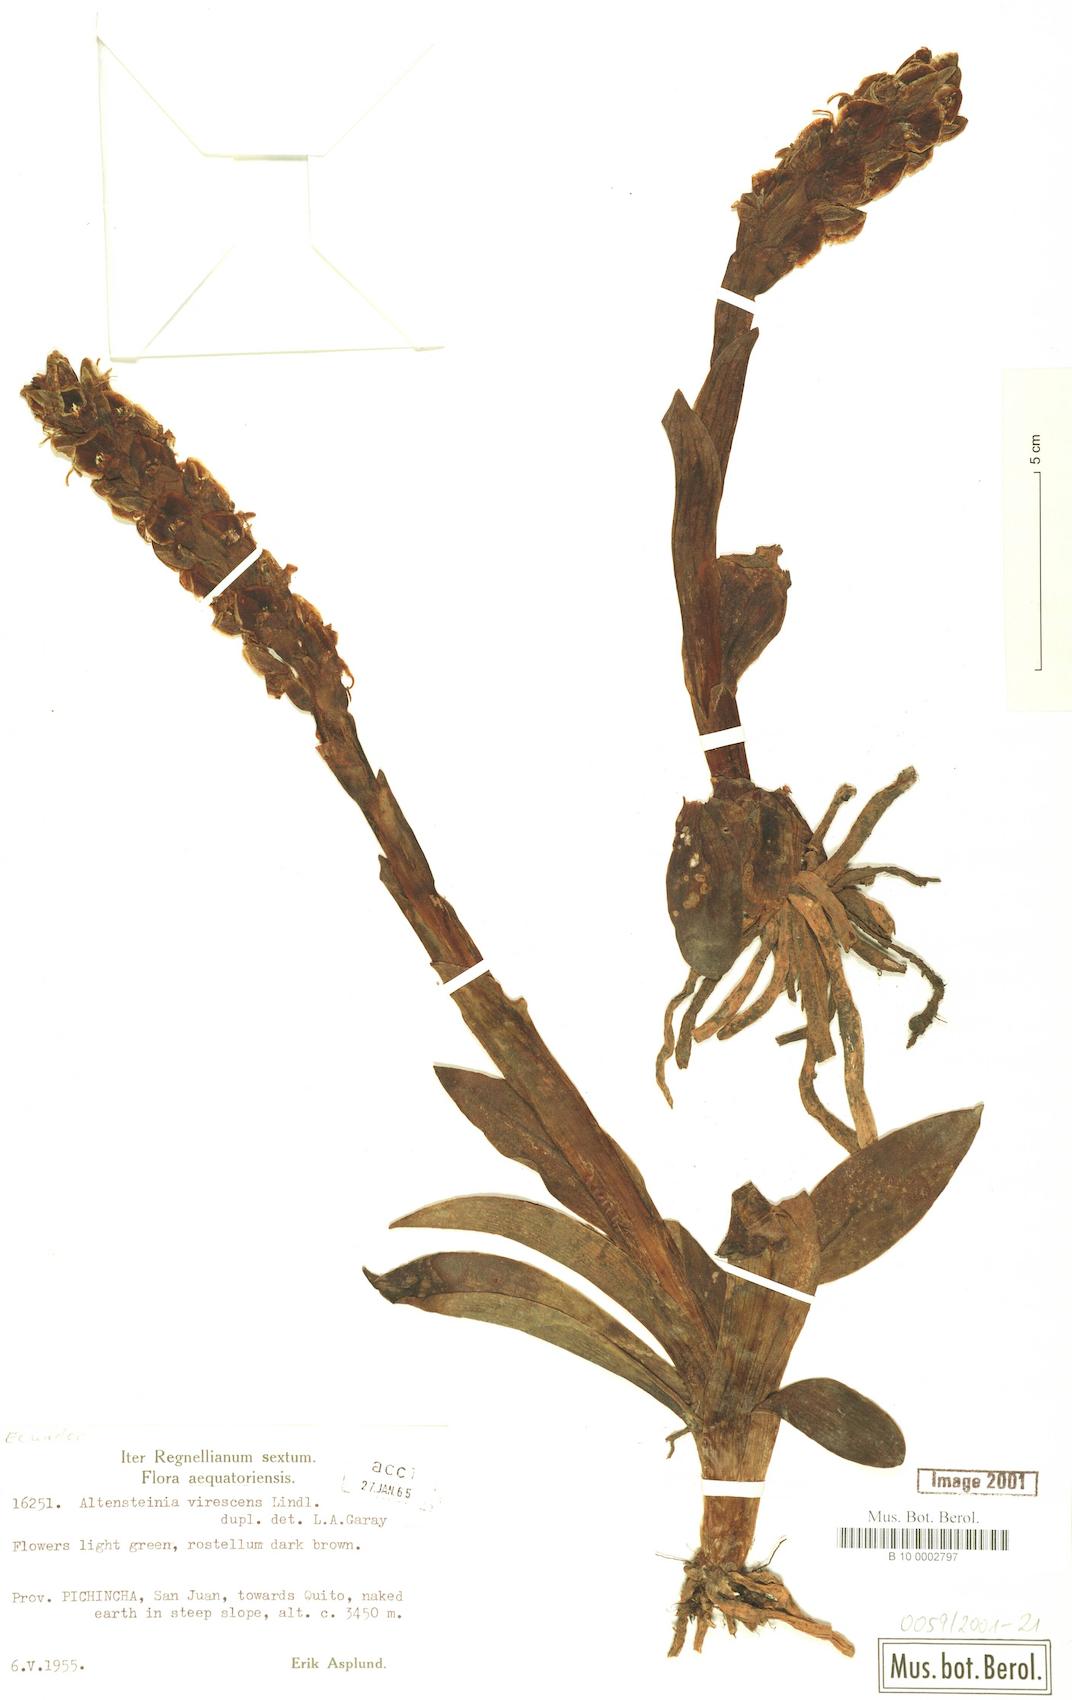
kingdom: Plantae
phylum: Tracheophyta
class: Liliopsida
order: Asparagales
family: Orchidaceae
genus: Altensteinia
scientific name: Altensteinia virescens
